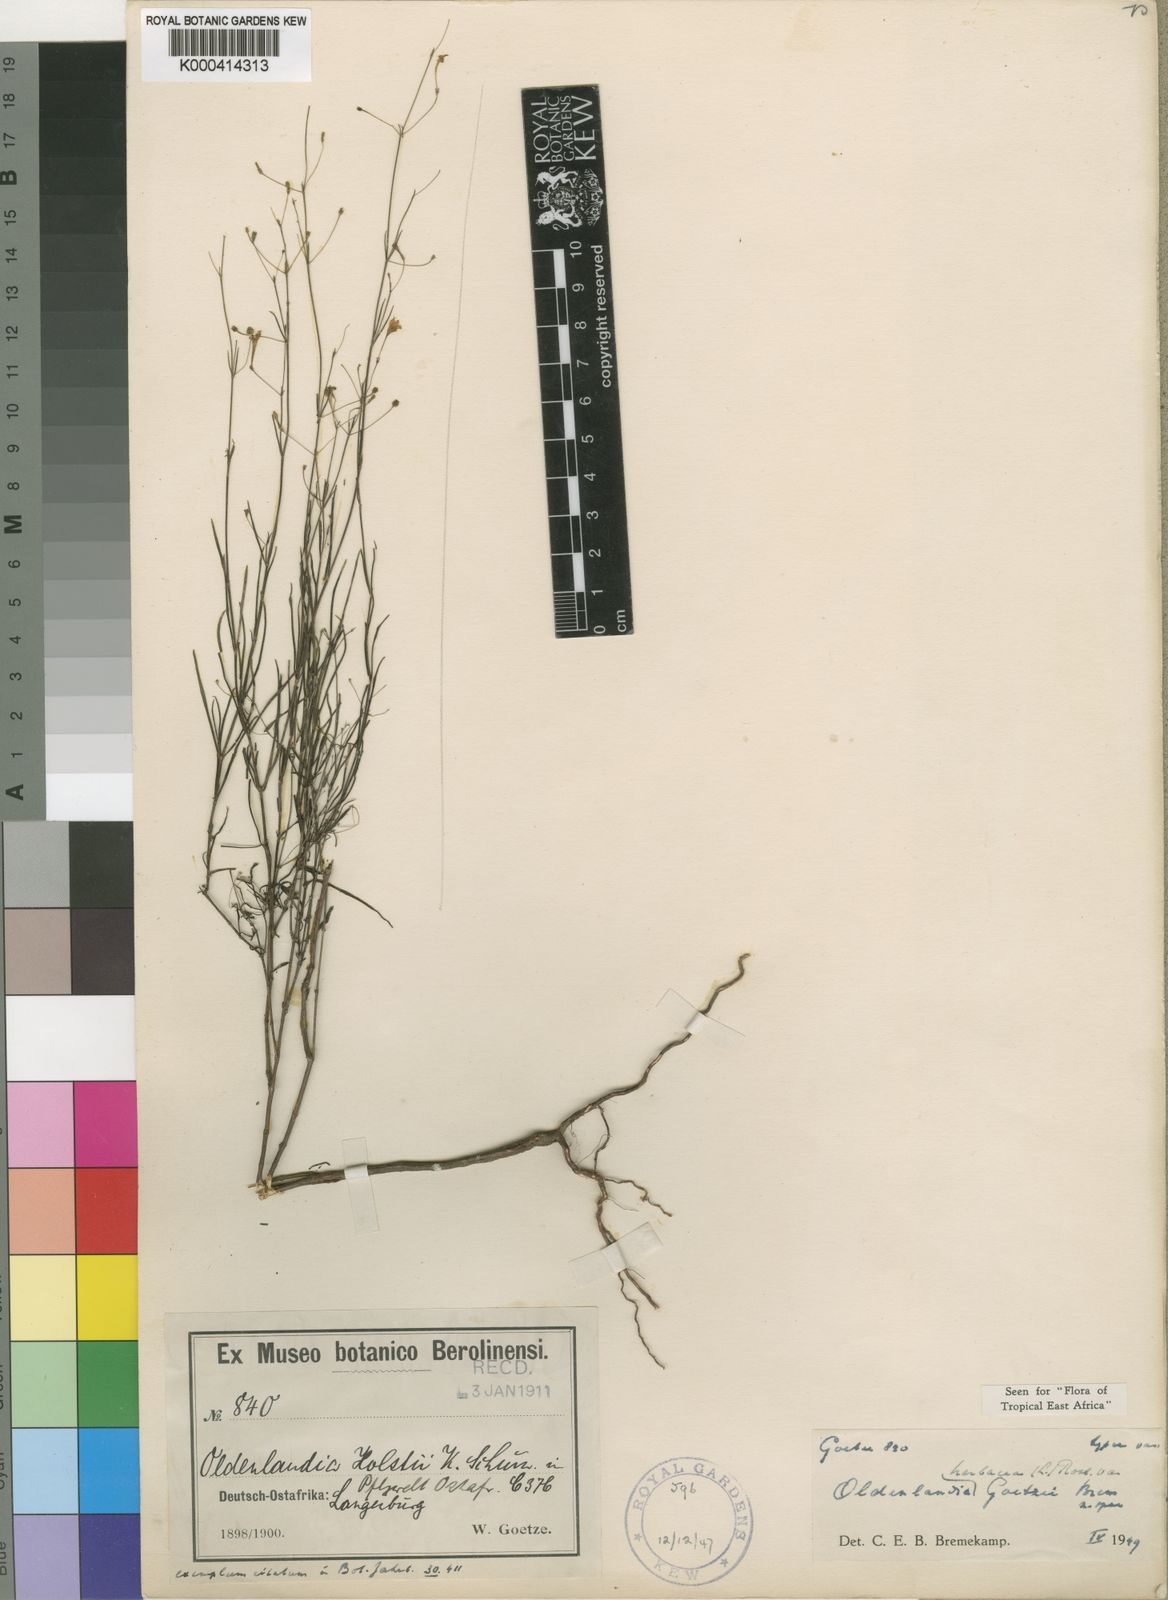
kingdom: Plantae
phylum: Tracheophyta
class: Magnoliopsida
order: Gentianales
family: Rubiaceae
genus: Oldenlandia
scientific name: Oldenlandia herbacea
